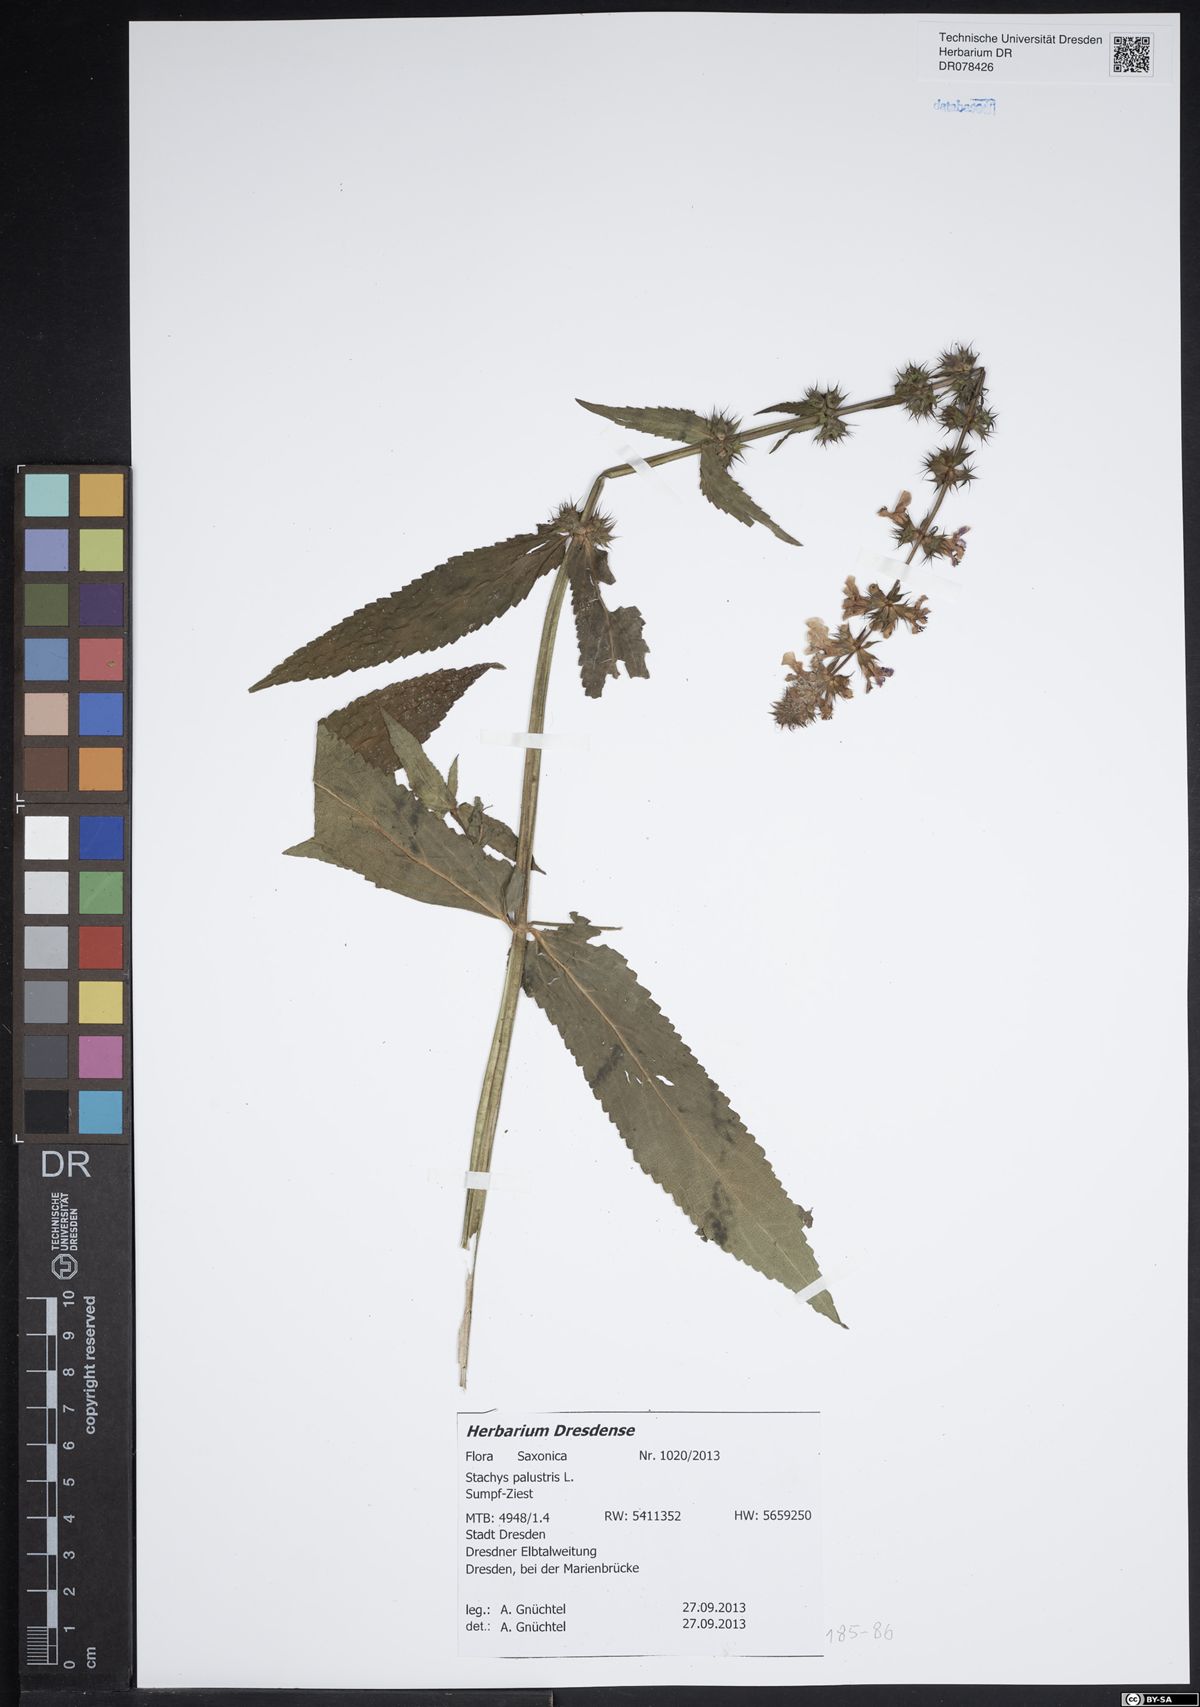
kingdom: Plantae
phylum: Tracheophyta
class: Magnoliopsida
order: Lamiales
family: Lamiaceae
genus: Stachys
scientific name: Stachys palustris
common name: Marsh woundwort
